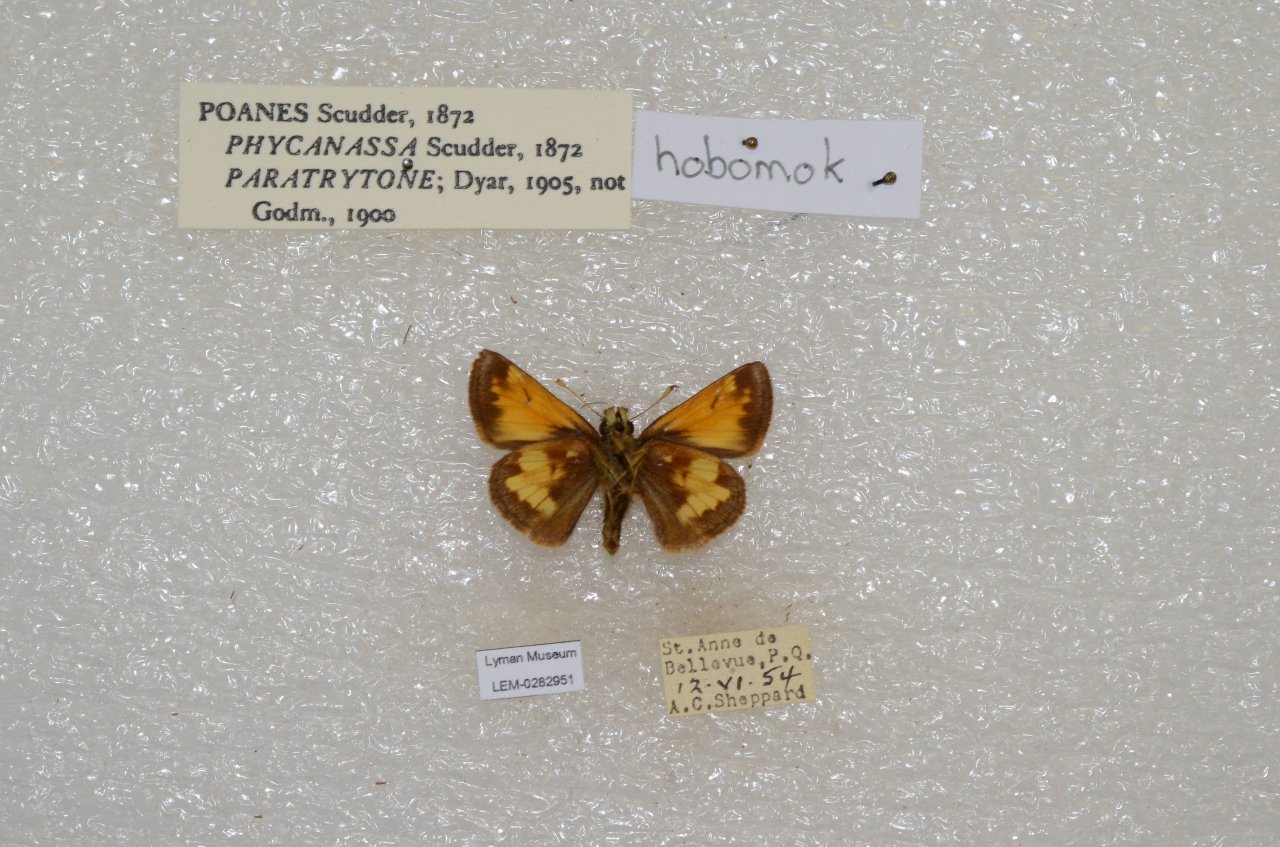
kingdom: Animalia
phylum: Arthropoda
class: Insecta
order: Lepidoptera
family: Hesperiidae
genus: Lon
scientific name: Lon hobomok
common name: Hobomok Skipper
